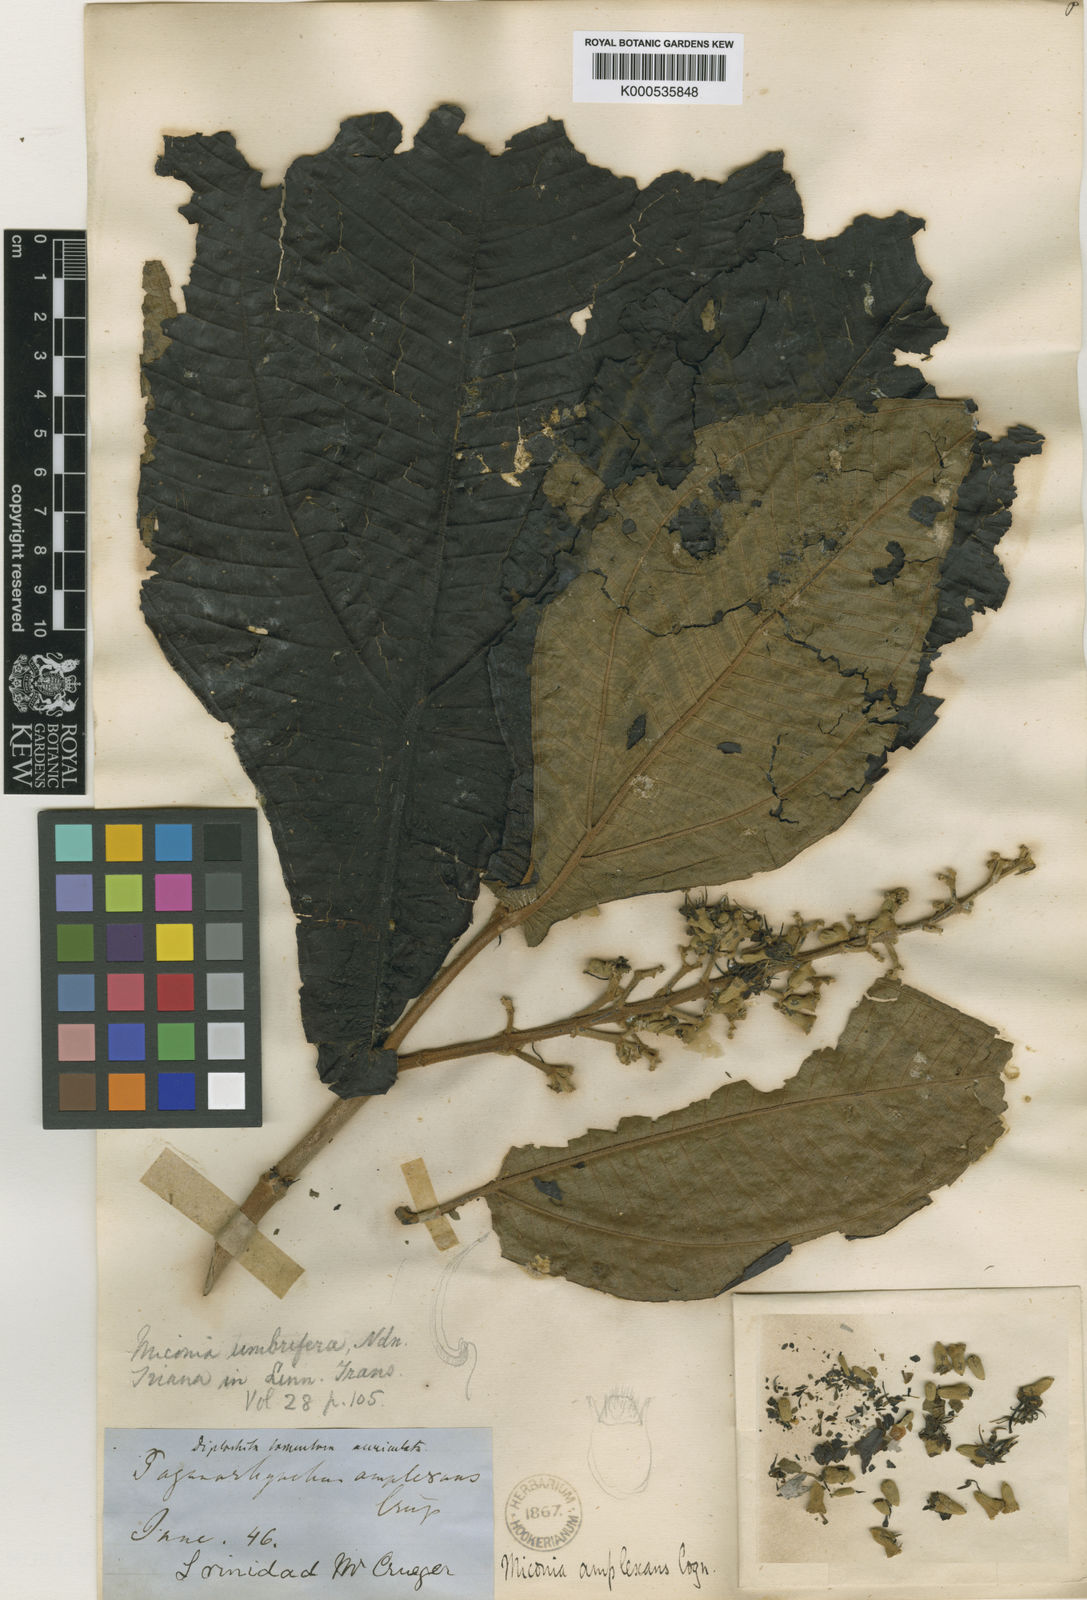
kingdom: Plantae
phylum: Tracheophyta
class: Magnoliopsida
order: Myrtales
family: Melastomataceae
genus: Miconia
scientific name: Miconia tomentosa
